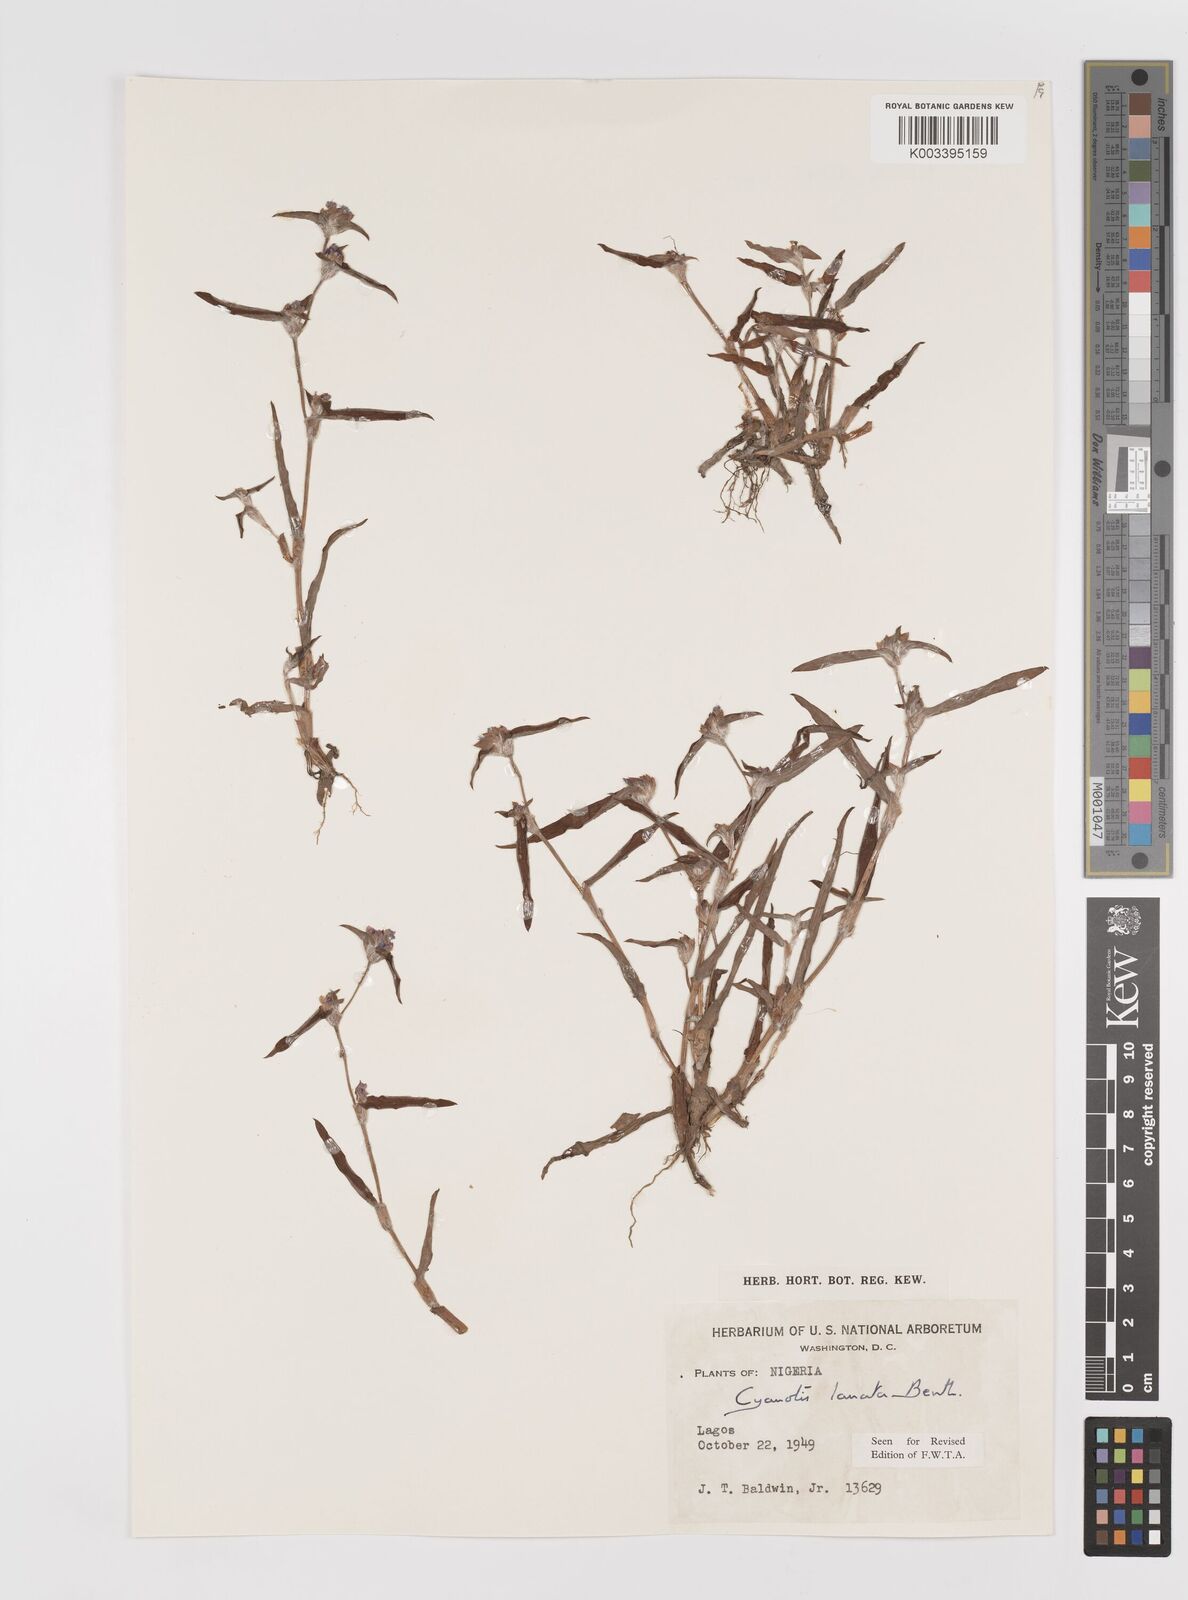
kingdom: Plantae
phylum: Tracheophyta
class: Liliopsida
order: Commelinales
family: Commelinaceae
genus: Cyanotis
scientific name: Cyanotis lanata
